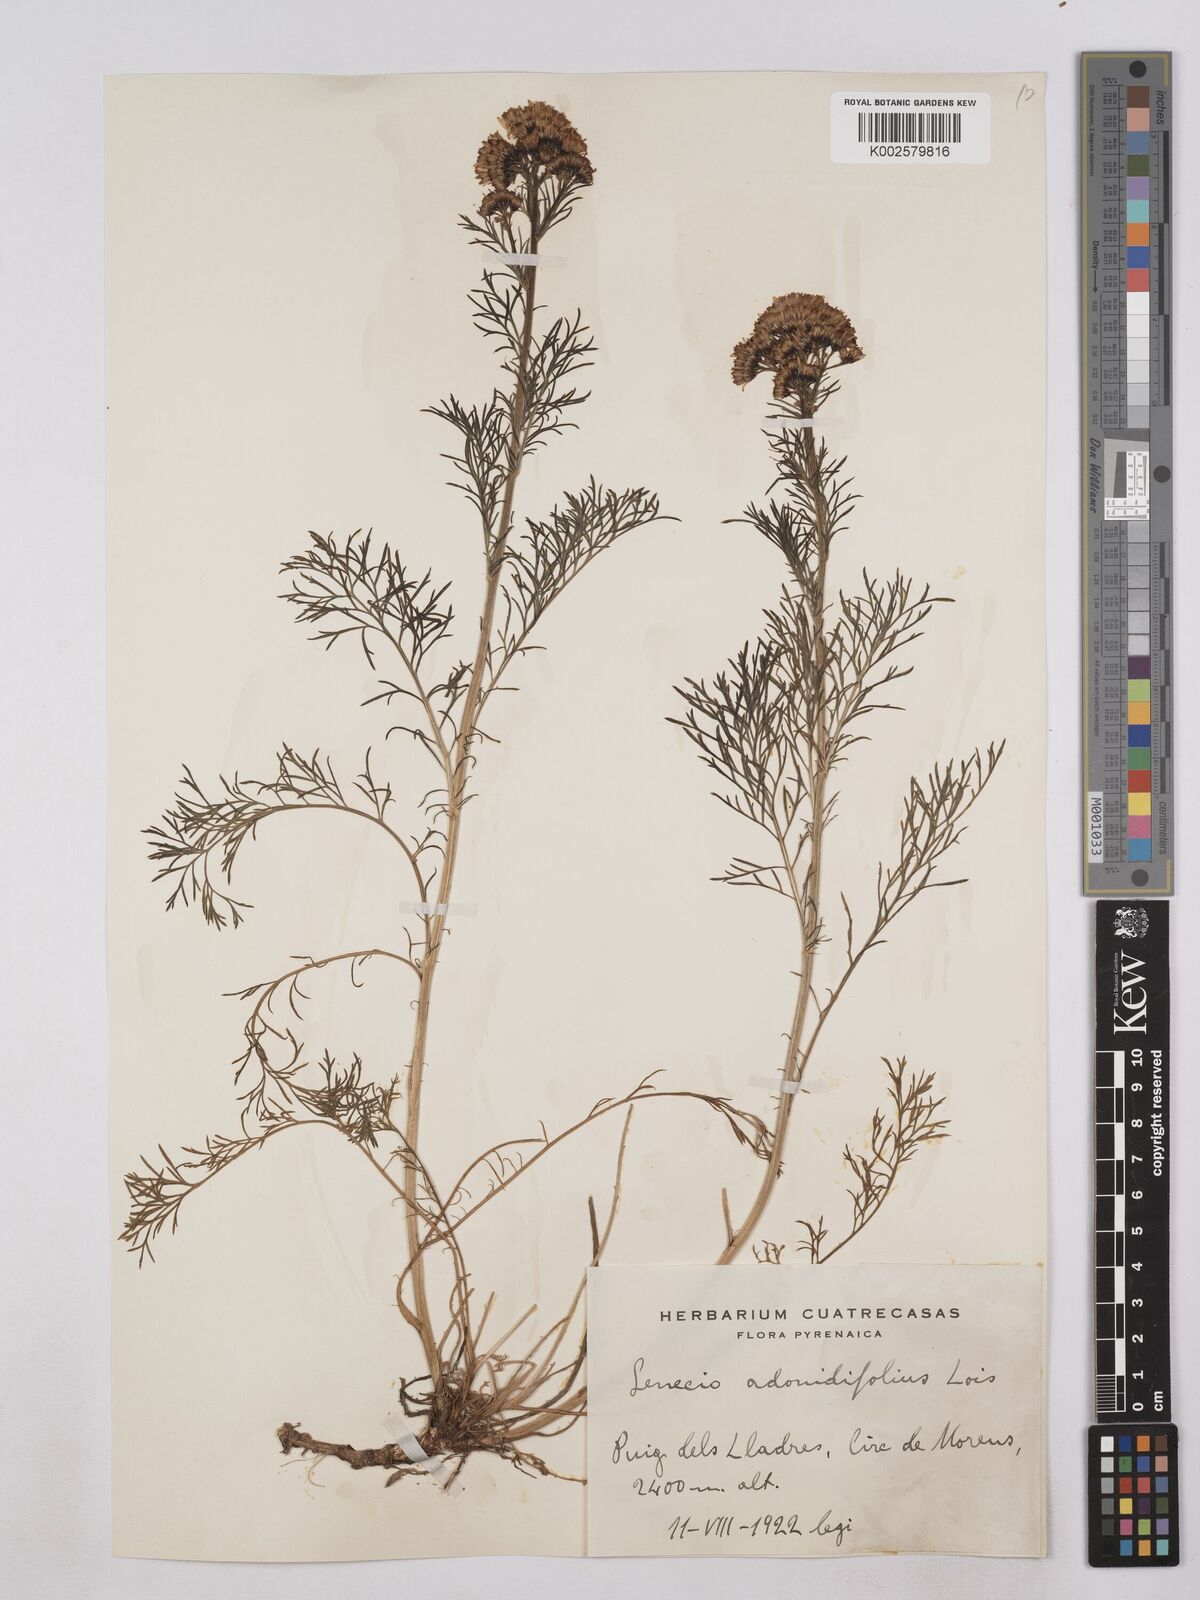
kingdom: Plantae
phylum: Tracheophyta
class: Magnoliopsida
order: Asterales
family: Asteraceae
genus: Jacobaea
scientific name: Jacobaea adonidifolia
